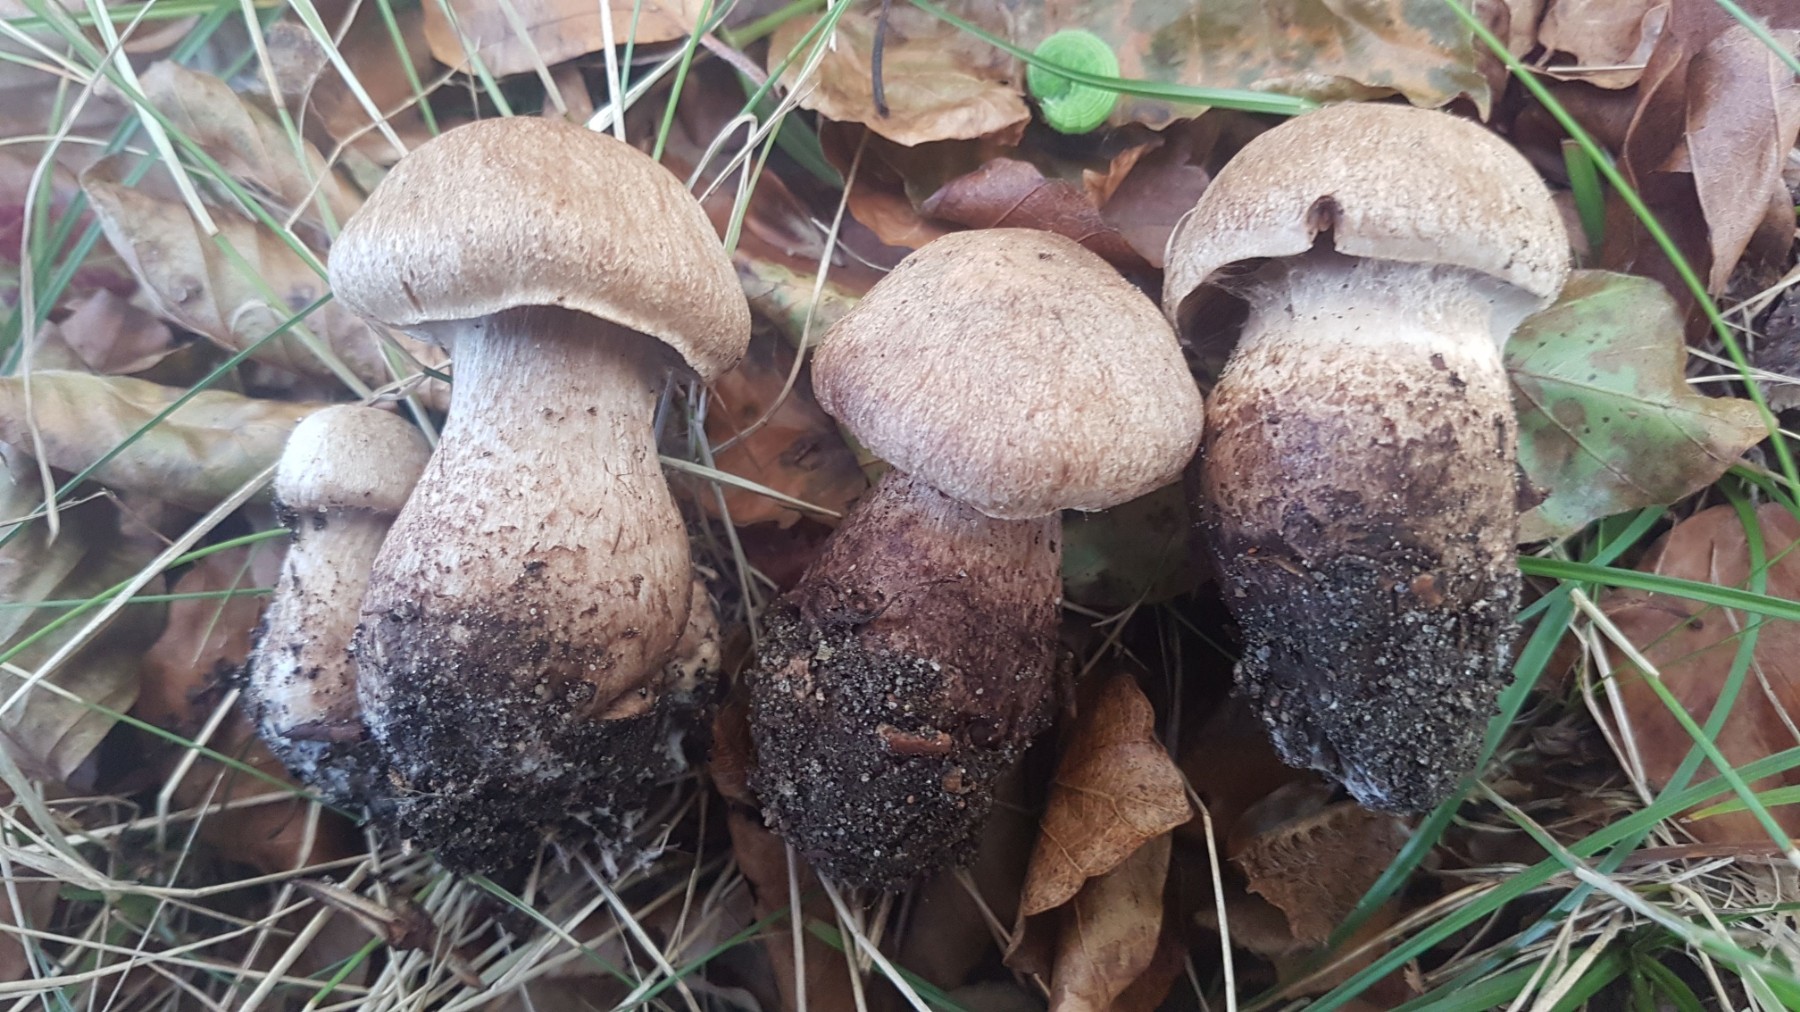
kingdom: Fungi
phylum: Basidiomycota
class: Agaricomycetes
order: Agaricales
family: Cortinariaceae
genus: Cortinarius
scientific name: Cortinarius sordescens
